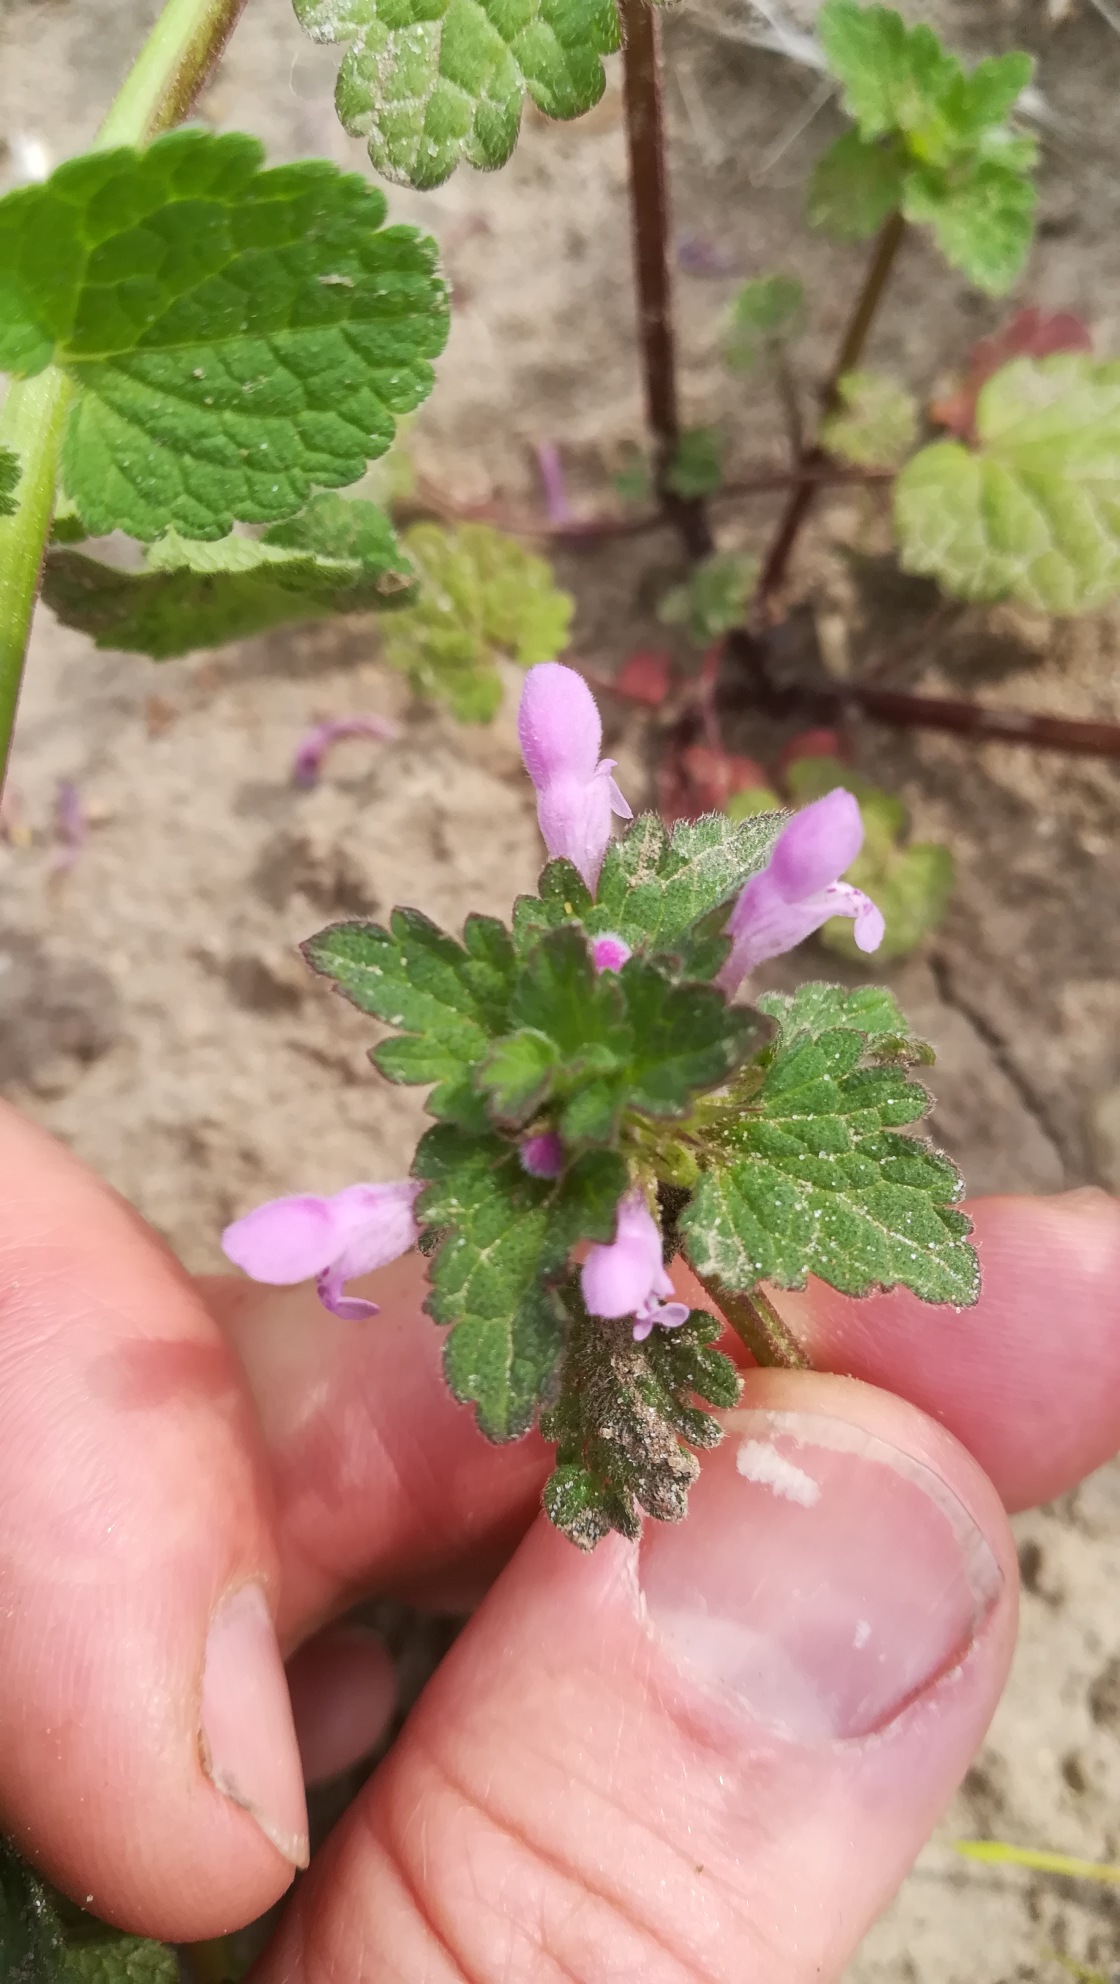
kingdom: Plantae
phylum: Tracheophyta
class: Magnoliopsida
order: Lamiales
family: Lamiaceae
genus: Lamium
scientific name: Lamium hybridum
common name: Fliget tvetand
